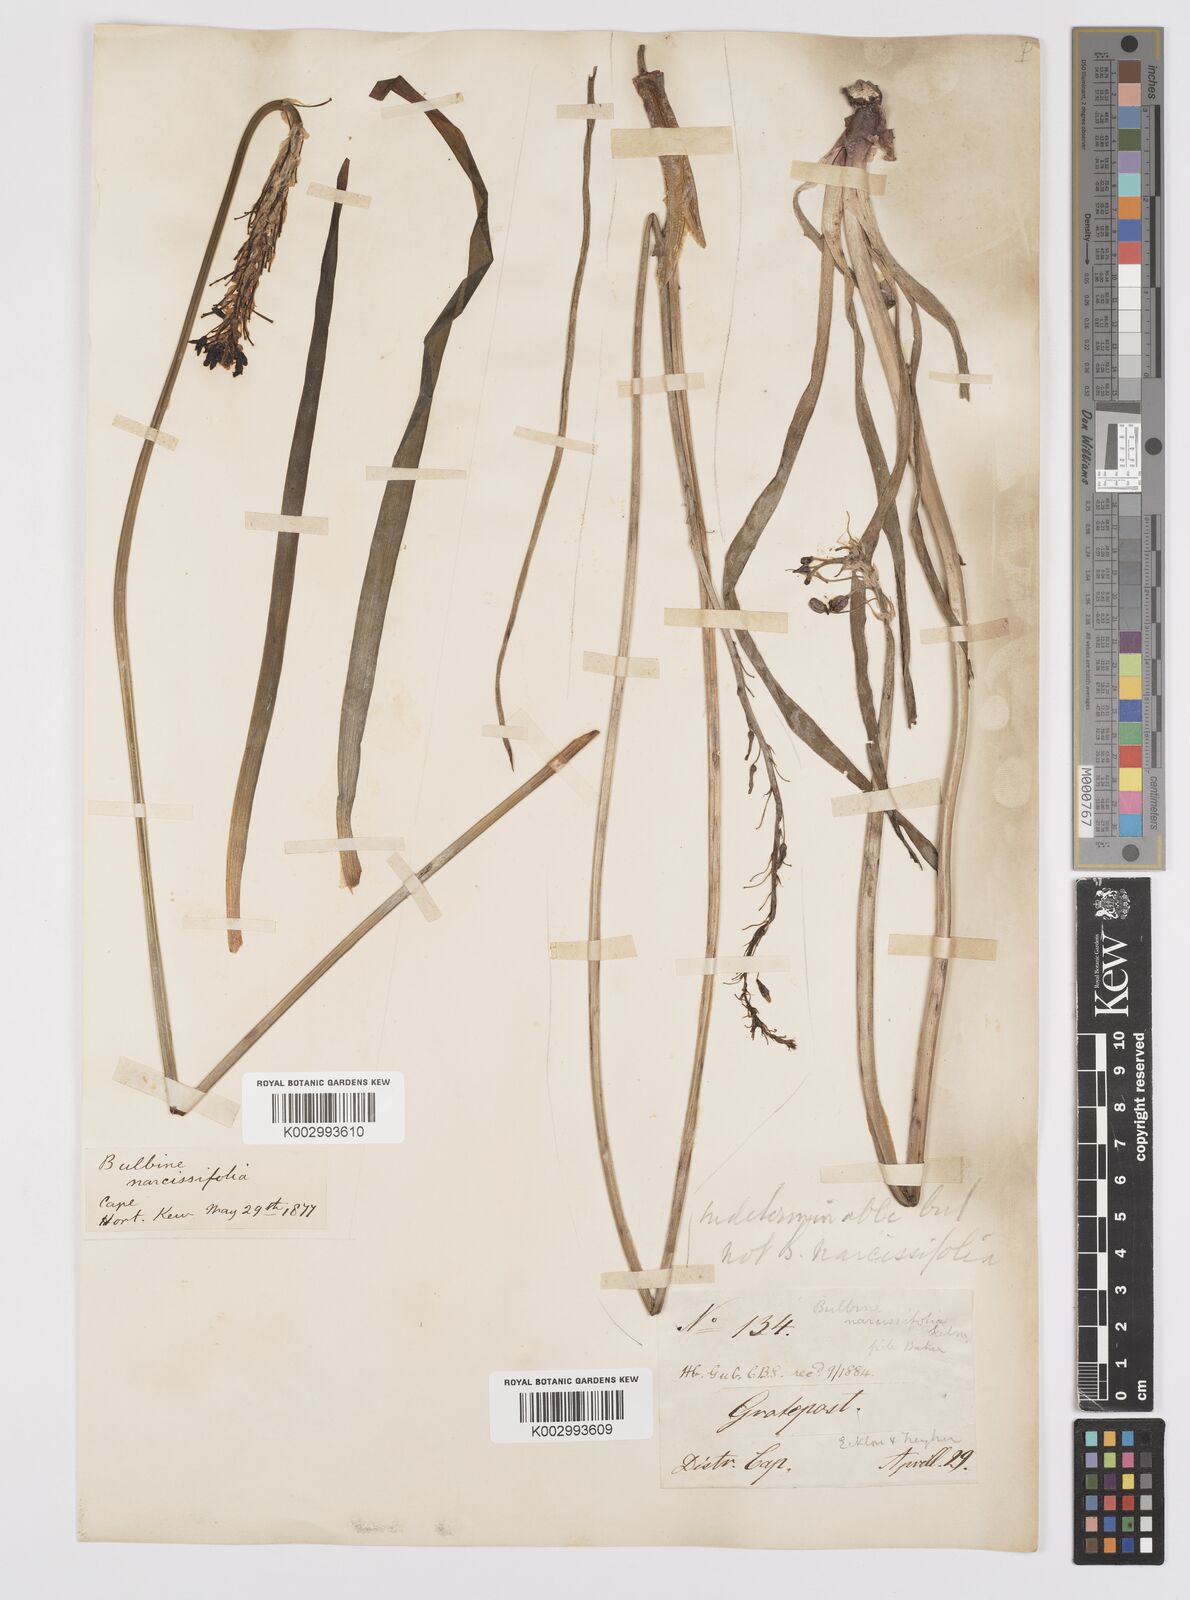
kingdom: Plantae
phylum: Tracheophyta
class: Liliopsida
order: Asparagales
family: Asphodelaceae
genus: Bulbine
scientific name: Bulbine narcissifolia
